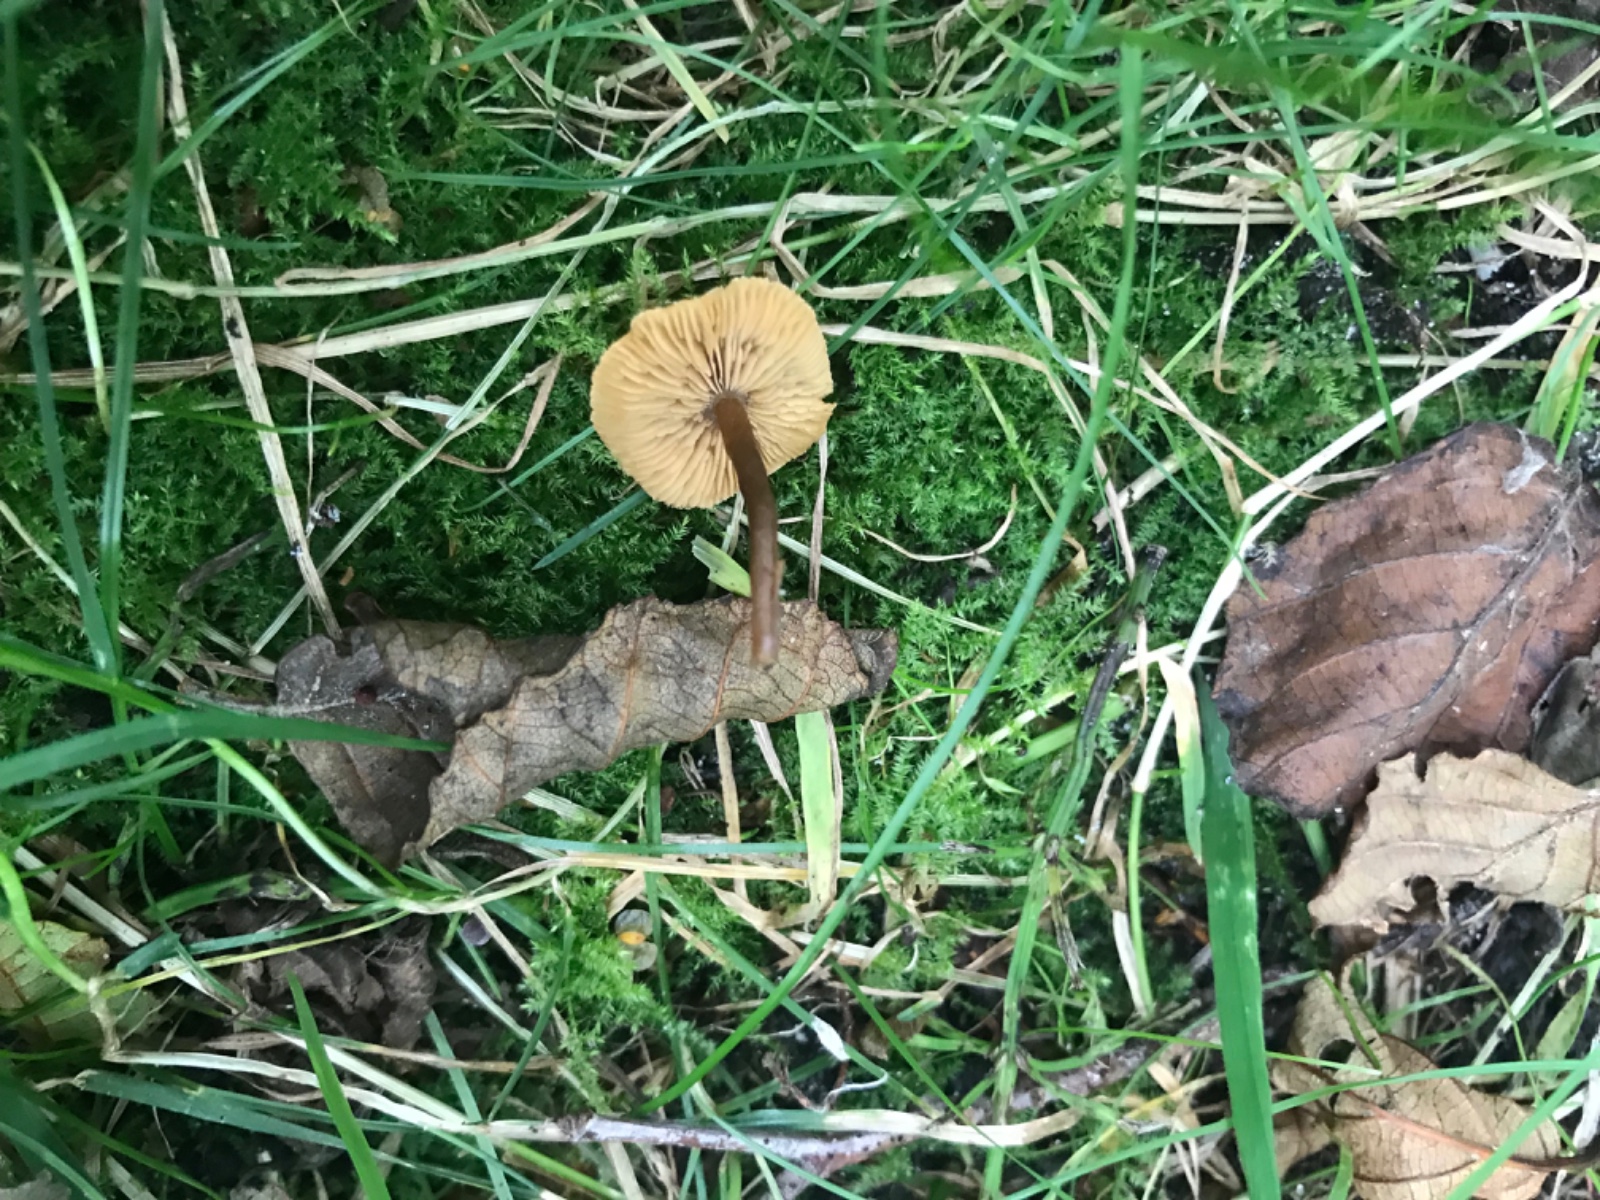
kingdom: Fungi
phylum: Basidiomycota
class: Agaricomycetes
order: Agaricales
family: Hymenogastraceae
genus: Naucoria
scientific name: Naucoria
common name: knaphat
